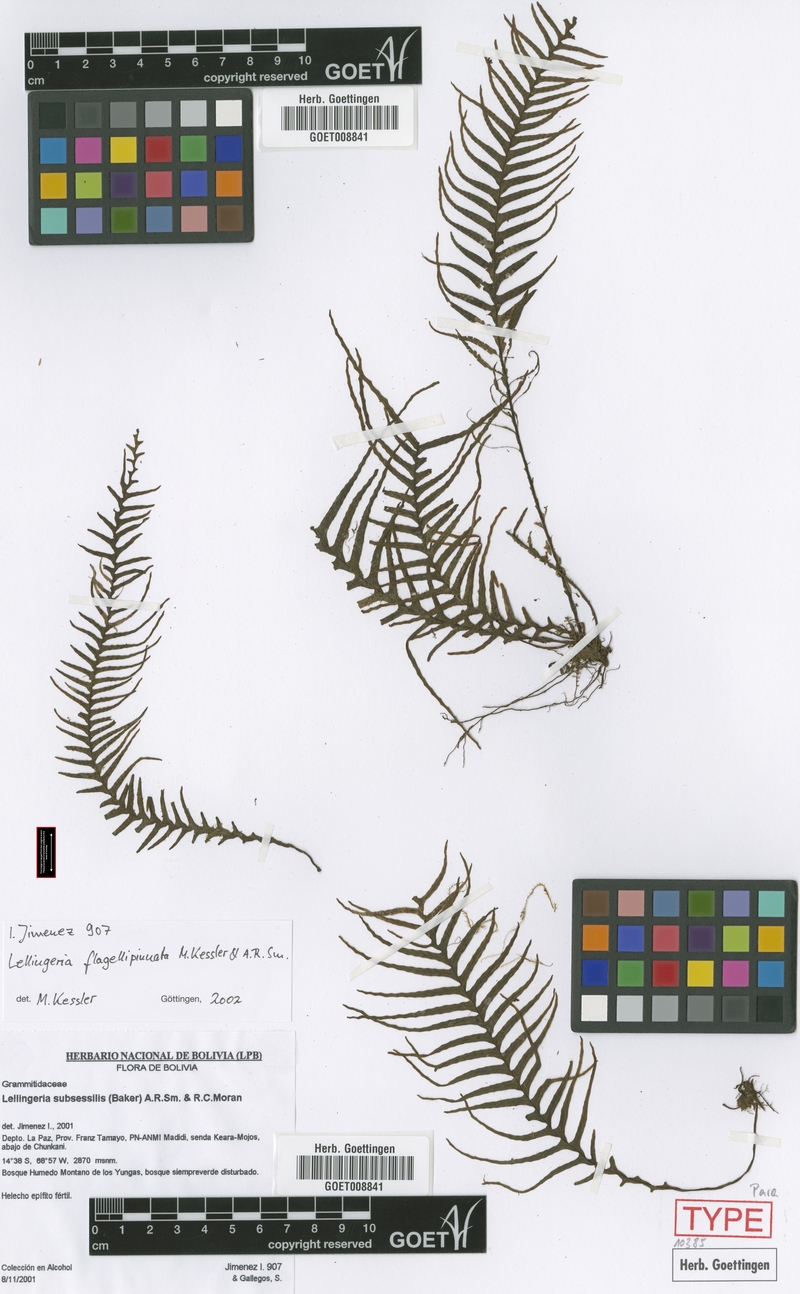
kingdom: Plantae
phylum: Tracheophyta
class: Polypodiopsida
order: Polypodiales
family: Polypodiaceae
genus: Lellingeria
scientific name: Lellingeria flagellipinnata
